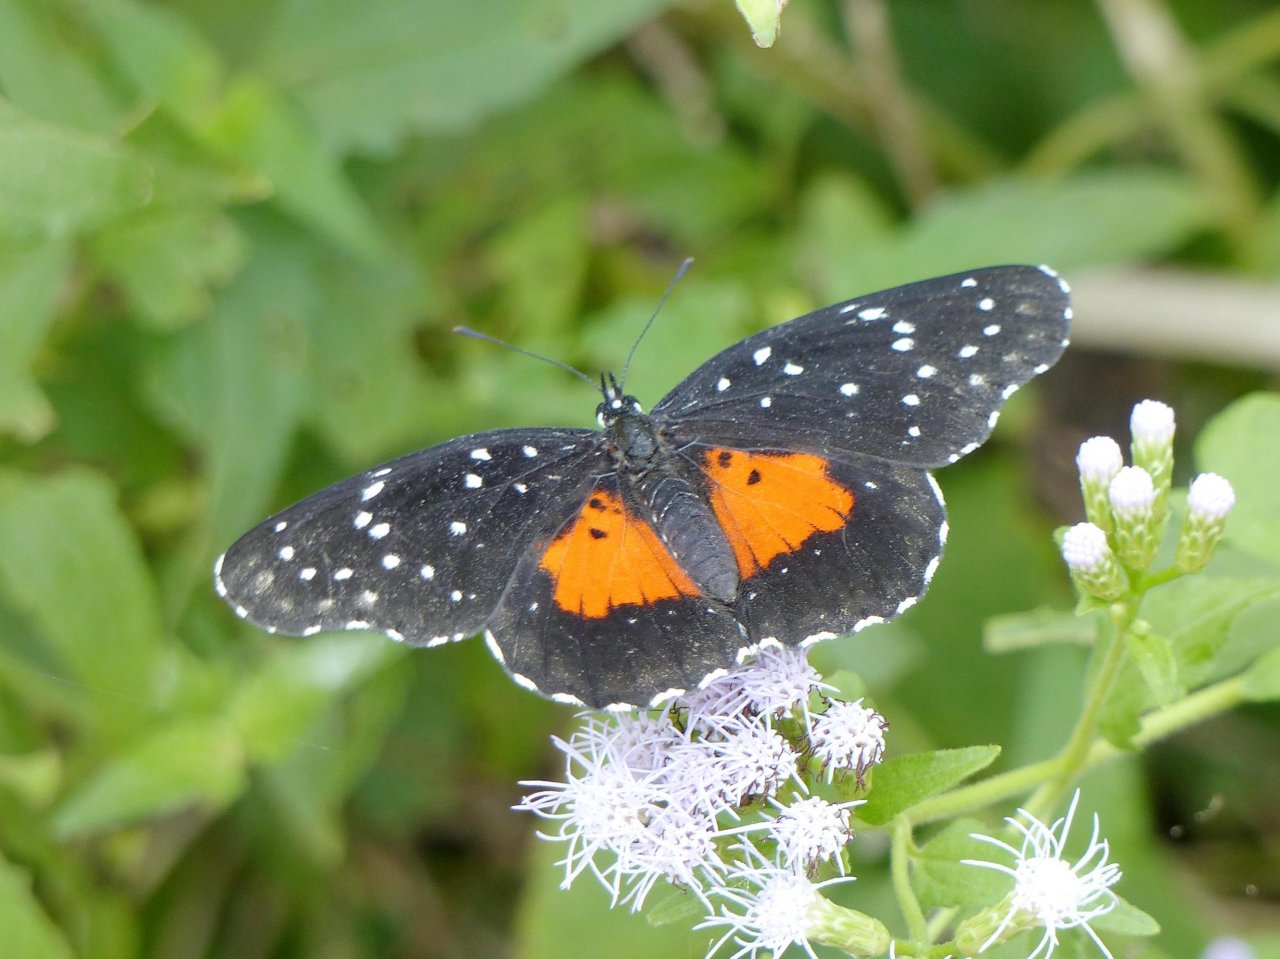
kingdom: Animalia
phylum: Arthropoda
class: Insecta
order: Lepidoptera
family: Nymphalidae
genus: Chlosyne
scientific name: Chlosyne janais
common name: Crimson Patch
